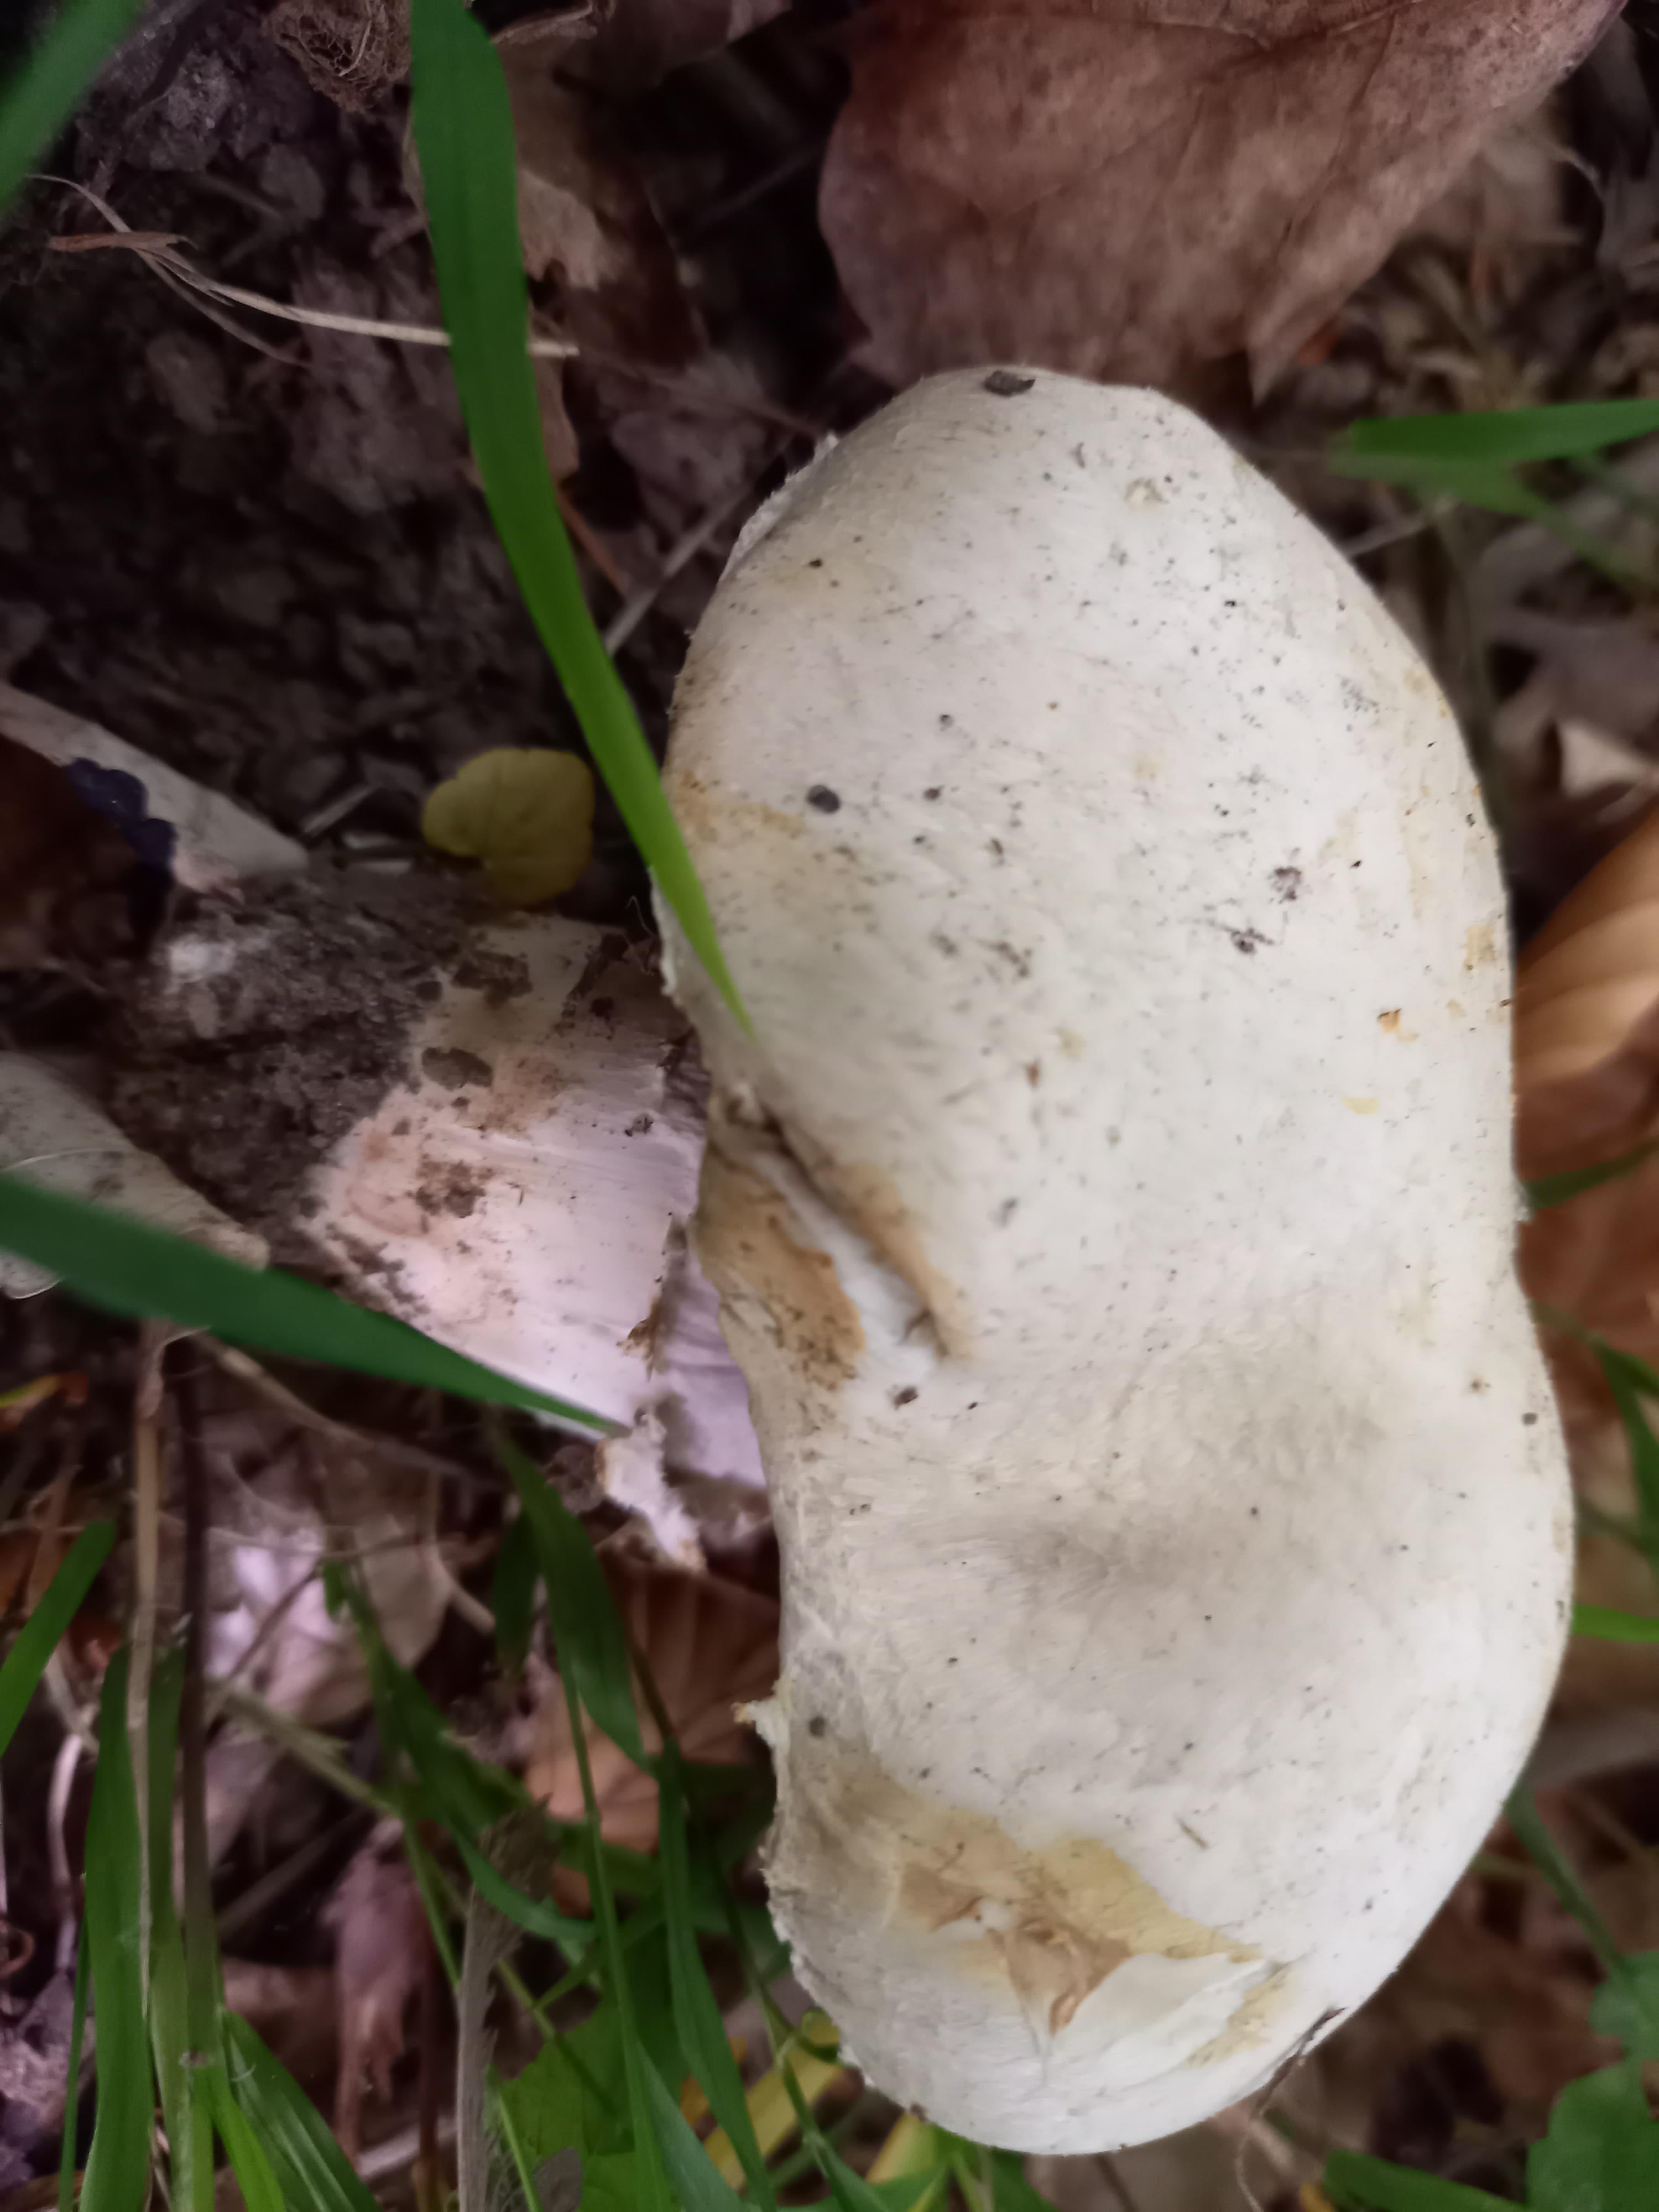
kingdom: Fungi
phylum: Basidiomycota
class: Agaricomycetes
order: Agaricales
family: Agaricaceae
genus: Agaricus
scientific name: Agaricus
